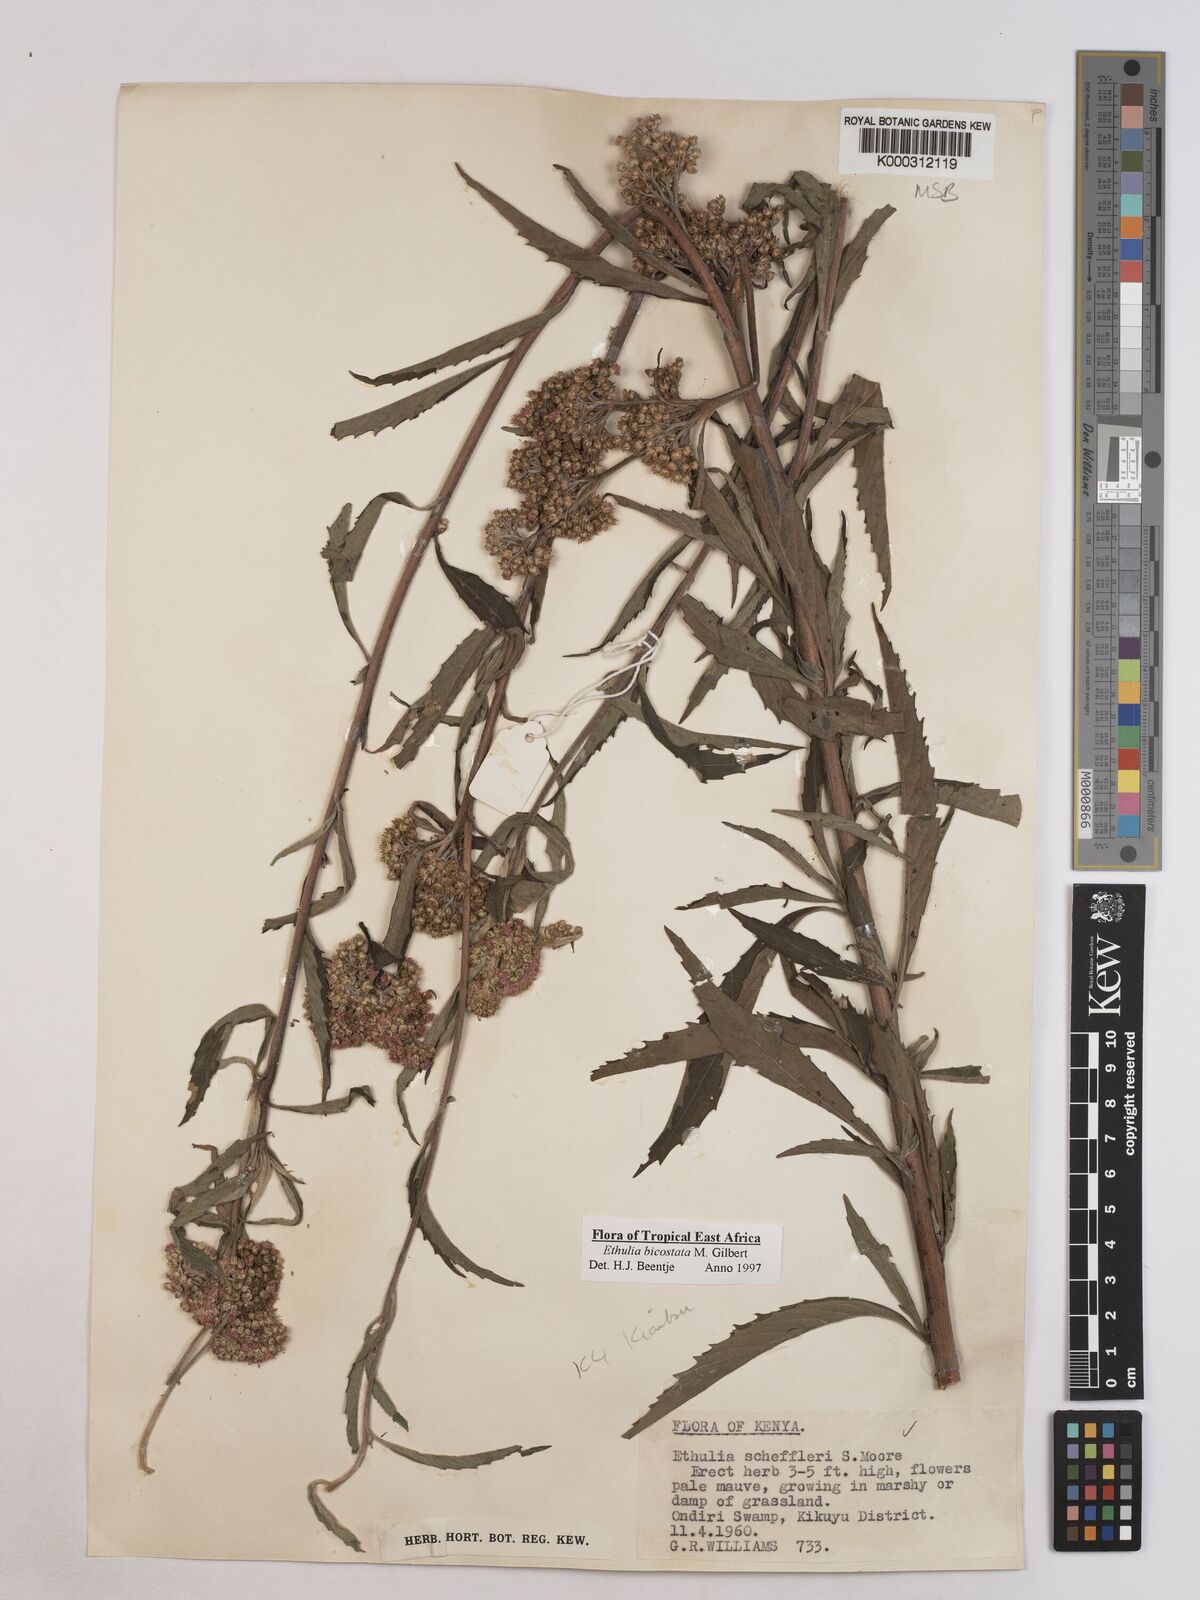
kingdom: Plantae
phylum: Tracheophyta
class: Magnoliopsida
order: Asterales
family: Asteraceae
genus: Ethulia
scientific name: Ethulia bicostata
